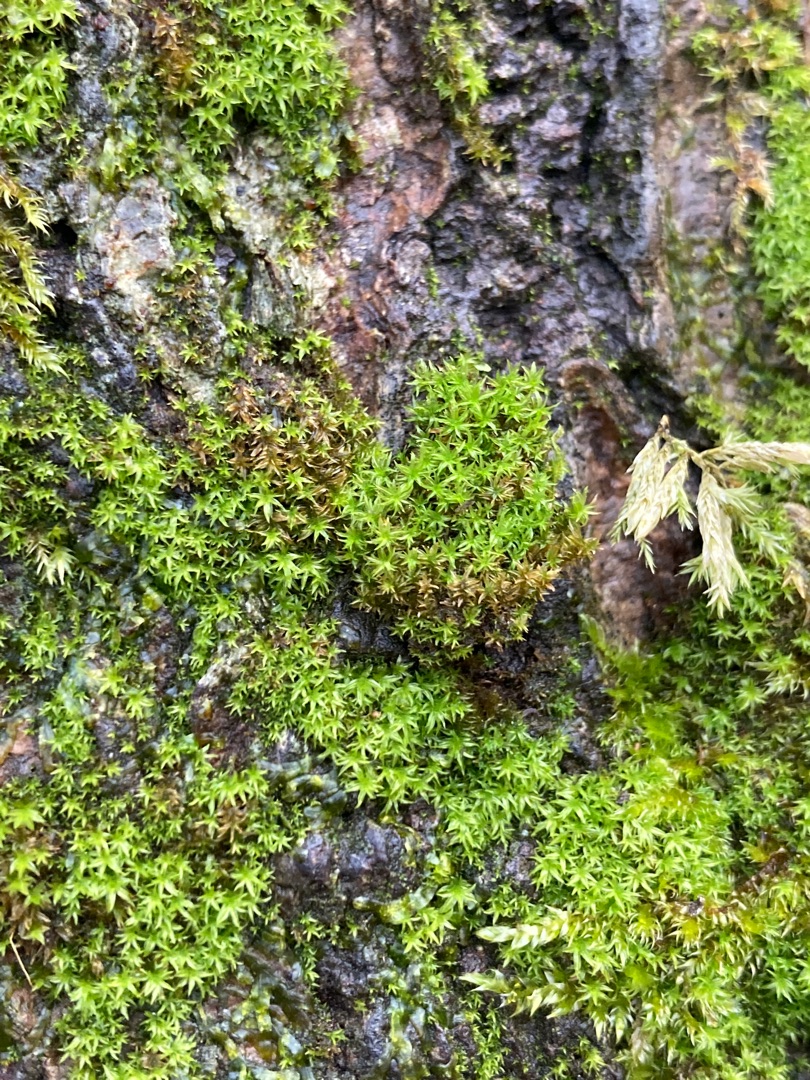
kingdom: Plantae
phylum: Bryophyta
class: Bryopsida
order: Orthotrichales
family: Orthotrichaceae
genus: Zygodon
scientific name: Zygodon rupestris
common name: Almindelig køllemos
